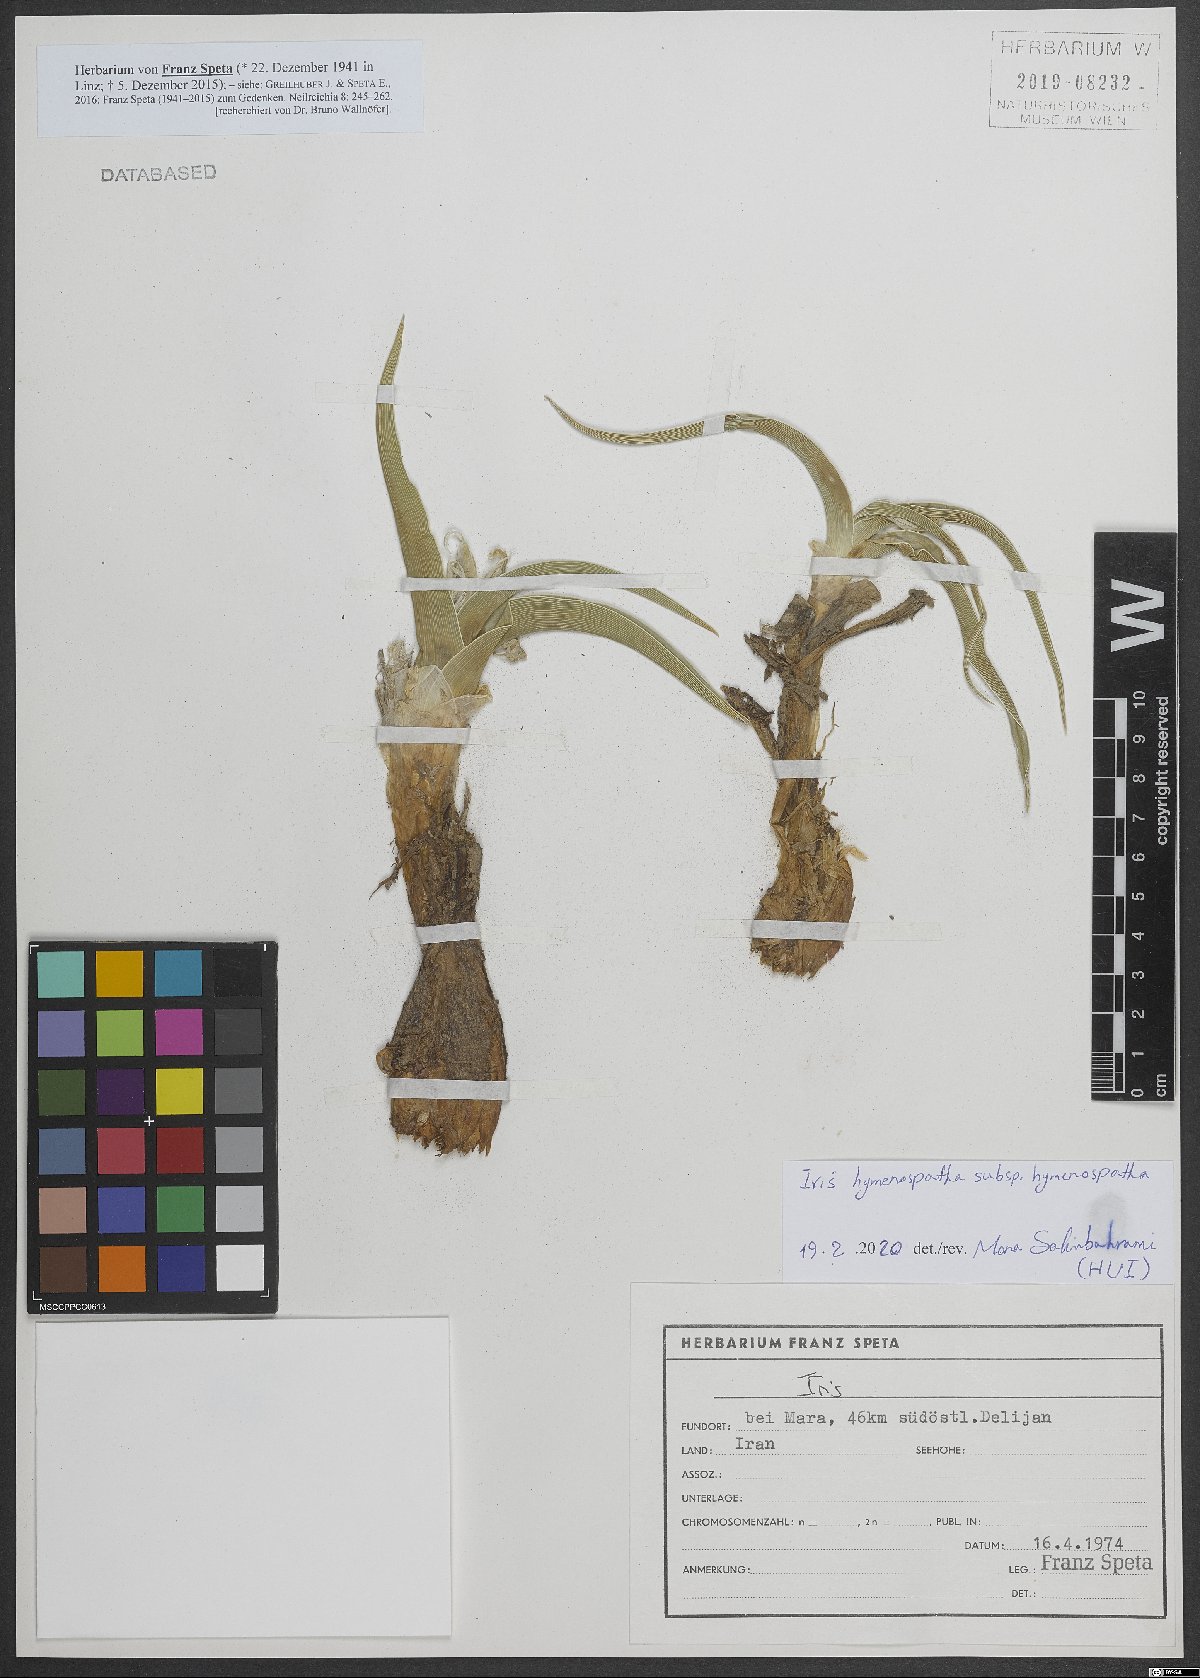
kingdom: Plantae
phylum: Tracheophyta
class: Liliopsida
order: Asparagales
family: Iridaceae
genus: Iris
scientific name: Iris hymenospatha
